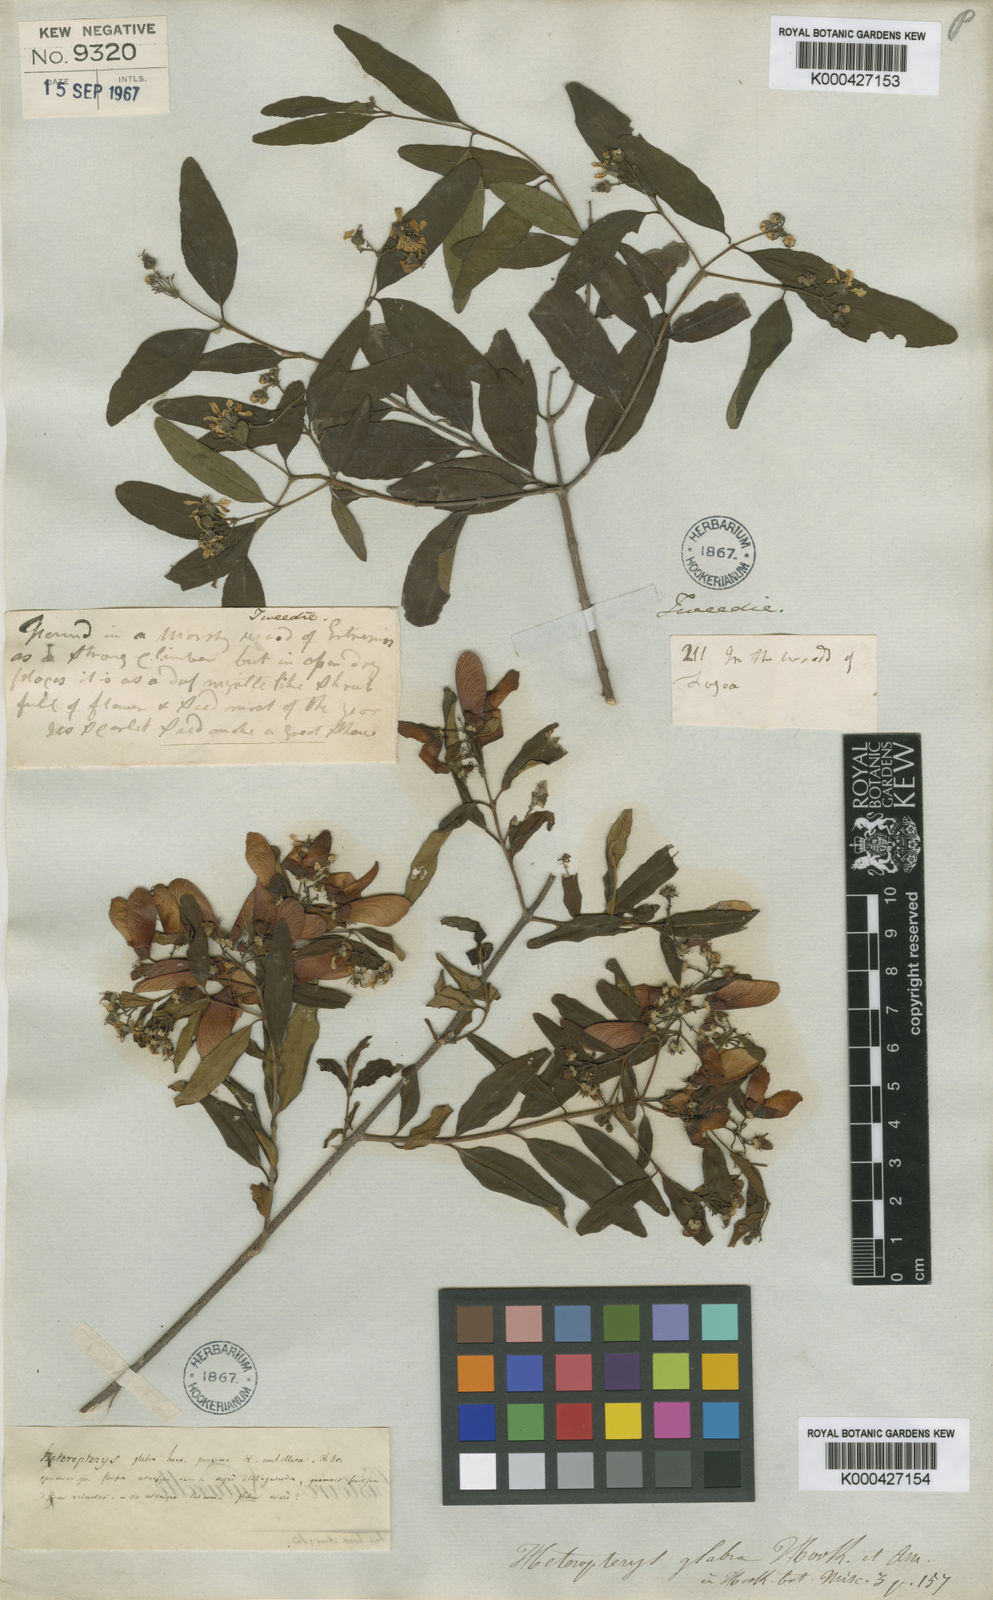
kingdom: Plantae
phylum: Tracheophyta
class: Magnoliopsida
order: Malpighiales
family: Malpighiaceae
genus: Heteropterys
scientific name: Heteropterys glabra
